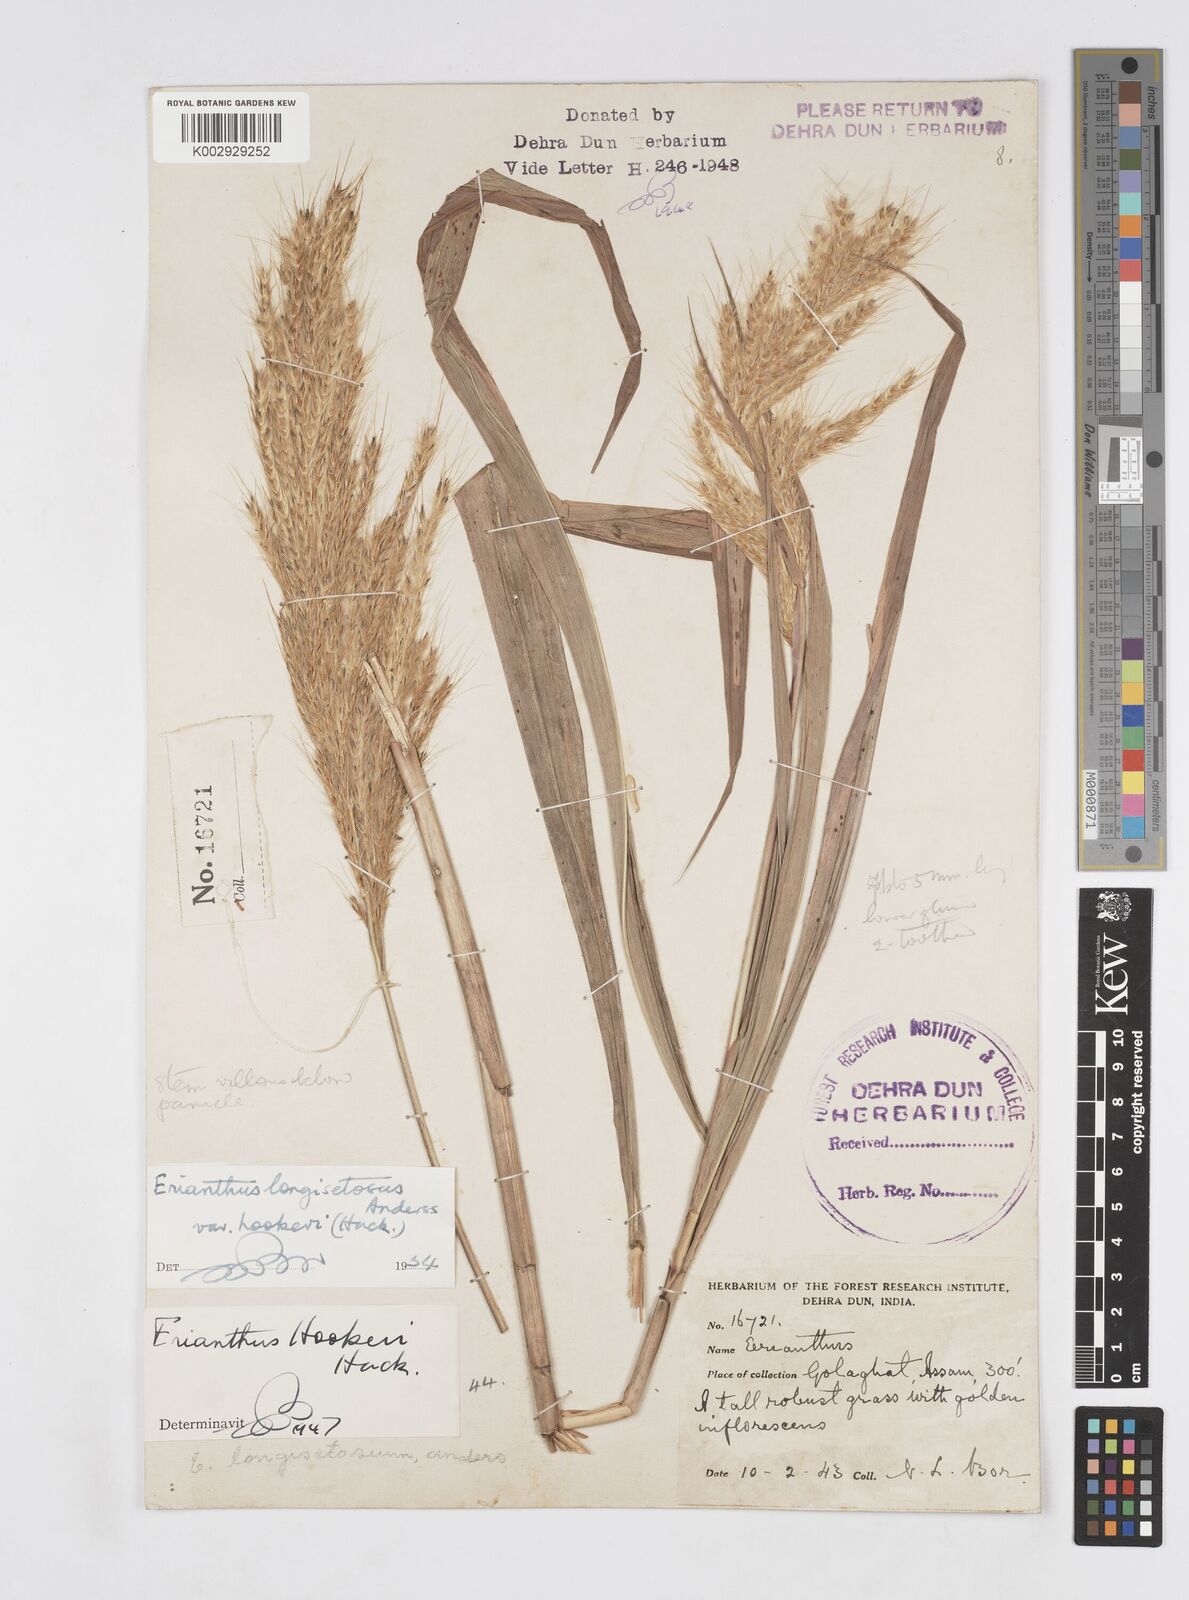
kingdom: Plantae
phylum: Tracheophyta
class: Liliopsida
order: Poales
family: Poaceae
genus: Saccharum
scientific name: Saccharum longesetosum
